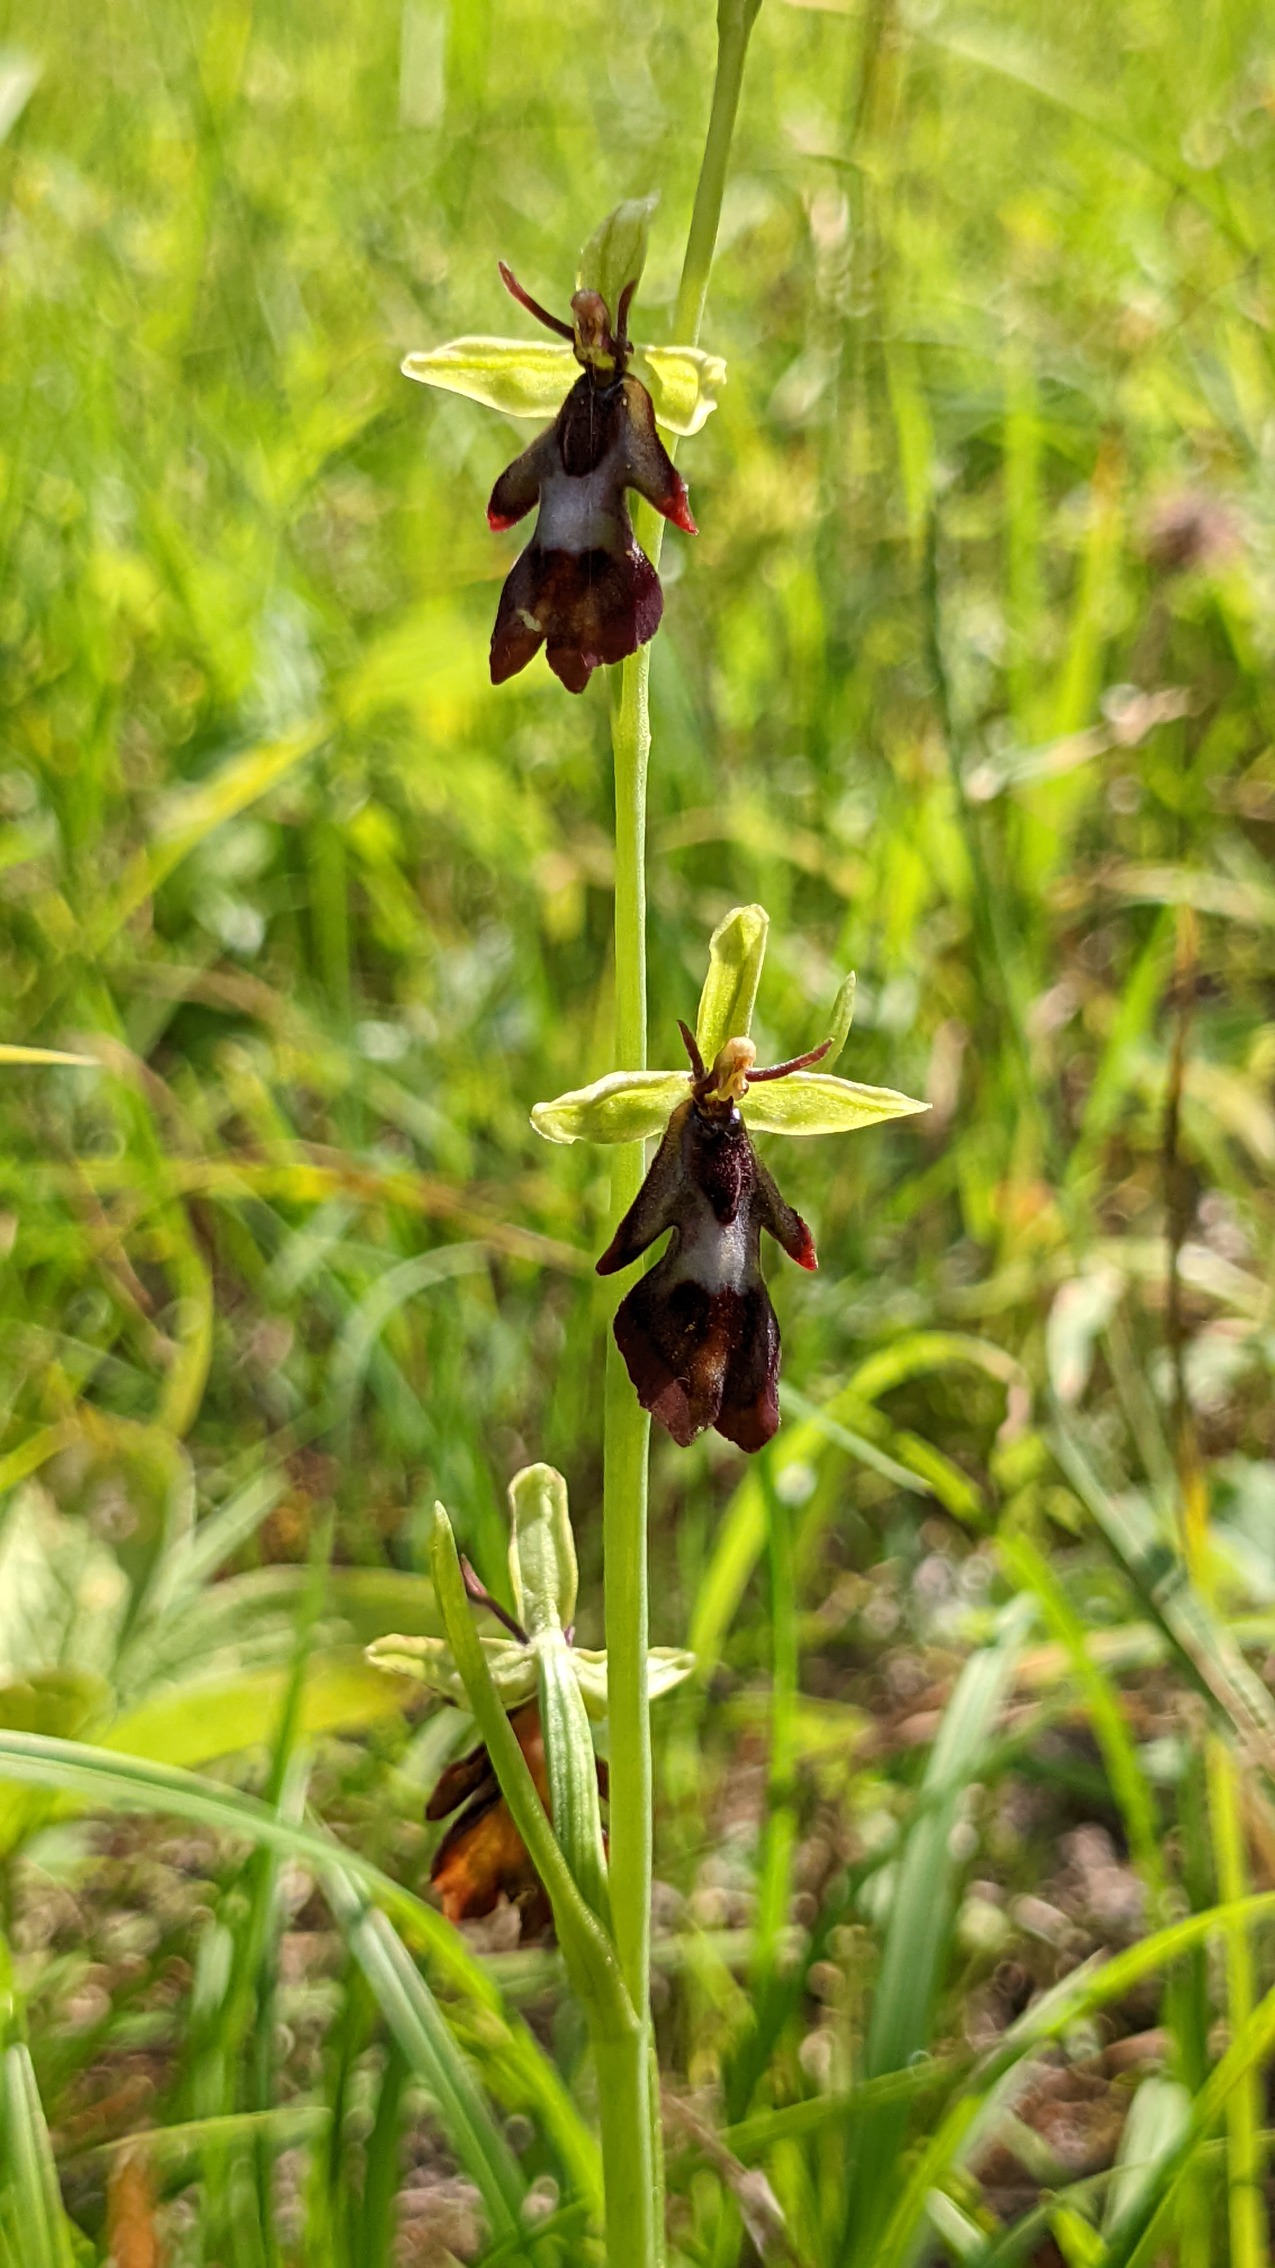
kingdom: Plantae
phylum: Tracheophyta
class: Liliopsida
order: Asparagales
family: Orchidaceae
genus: Ophrys
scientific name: Ophrys insectifera
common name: Flueblomst
